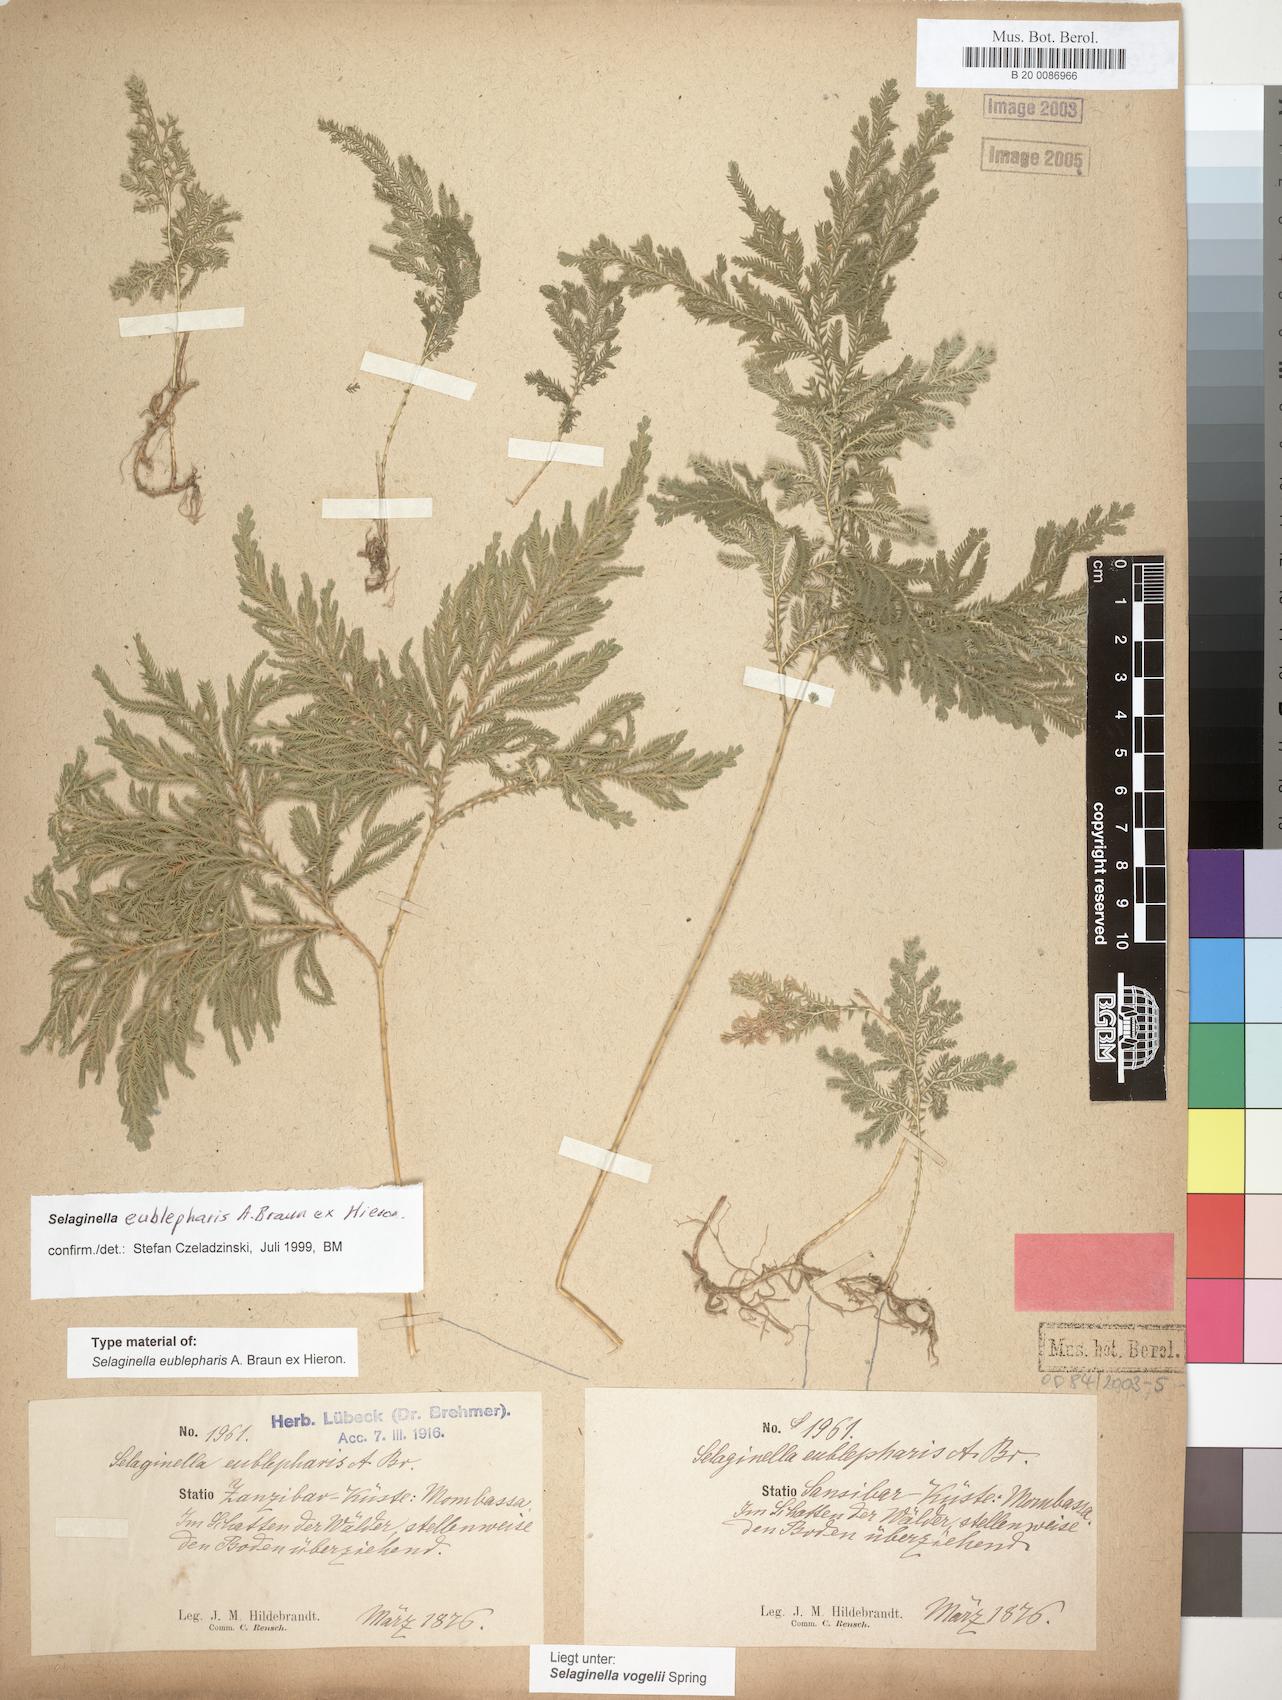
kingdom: Plantae
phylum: Tracheophyta
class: Lycopodiopsida
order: Selaginellales
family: Selaginellaceae
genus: Selaginella
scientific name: Selaginella eublepharis
